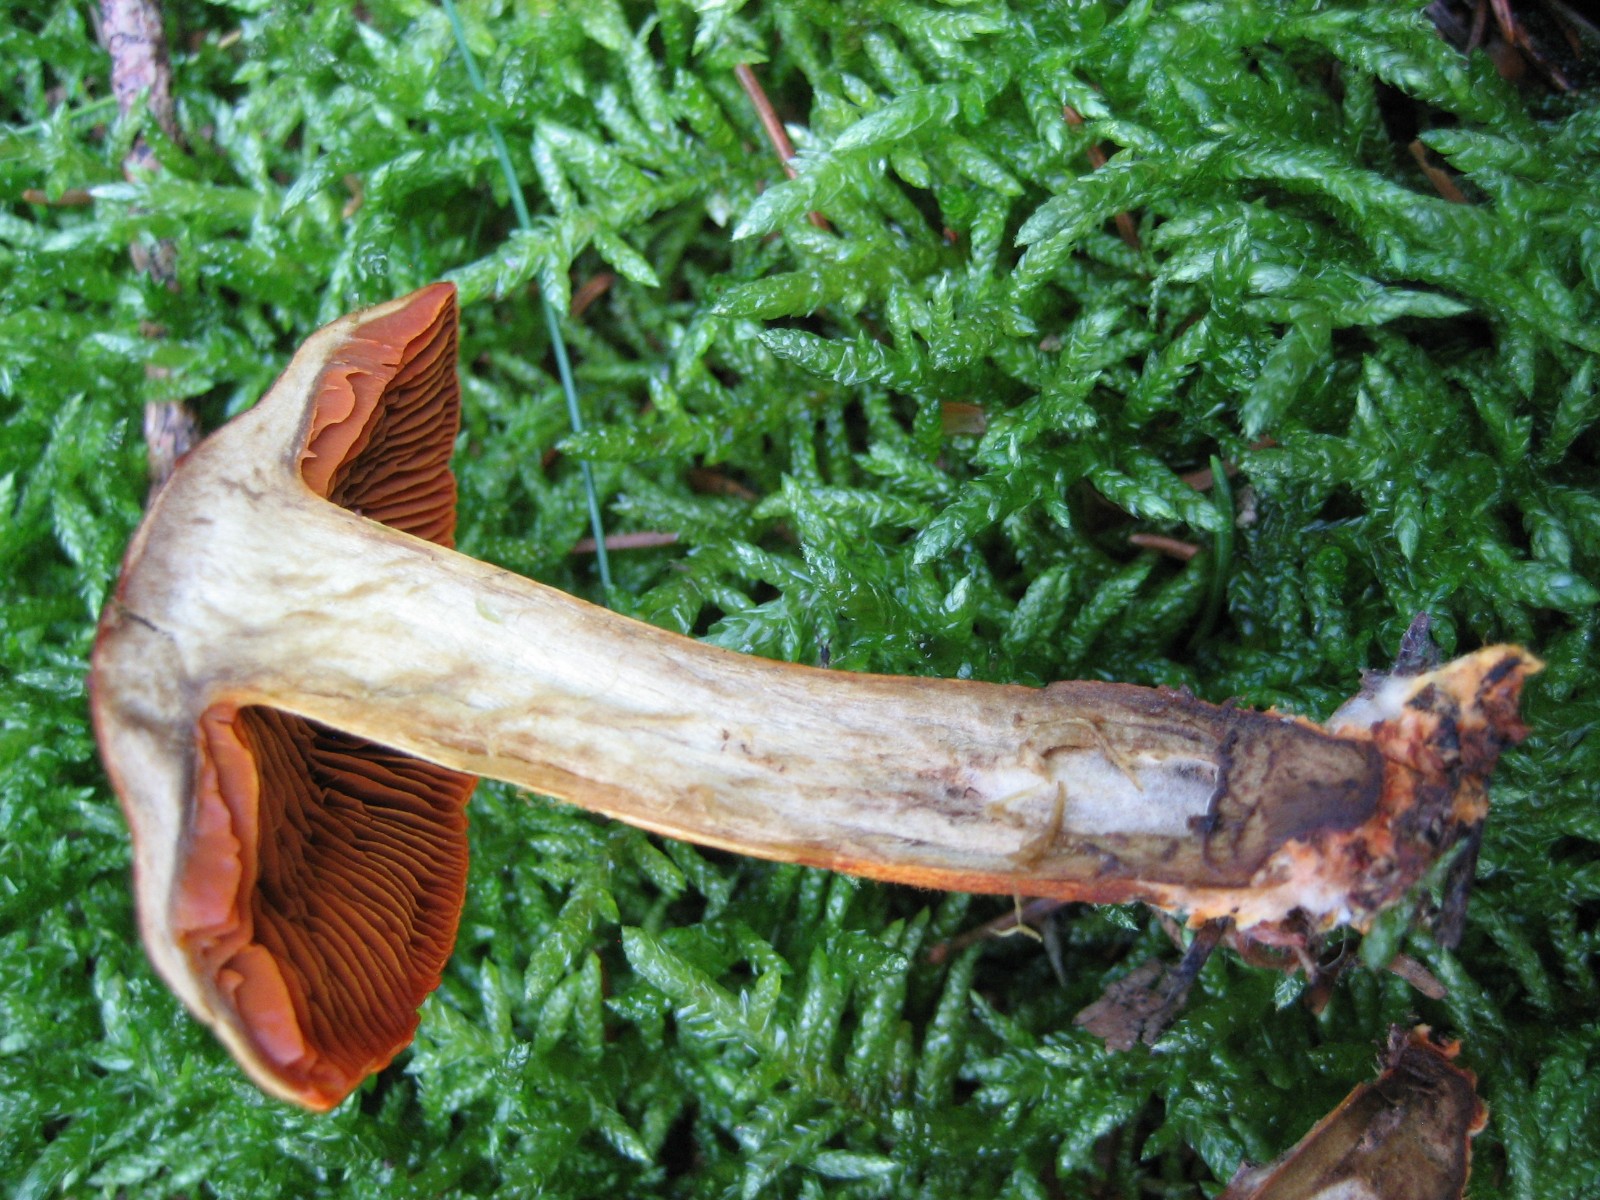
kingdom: Fungi
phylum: Basidiomycota
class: Agaricomycetes
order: Agaricales
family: Cortinariaceae
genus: Cortinarius
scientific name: Cortinarius
